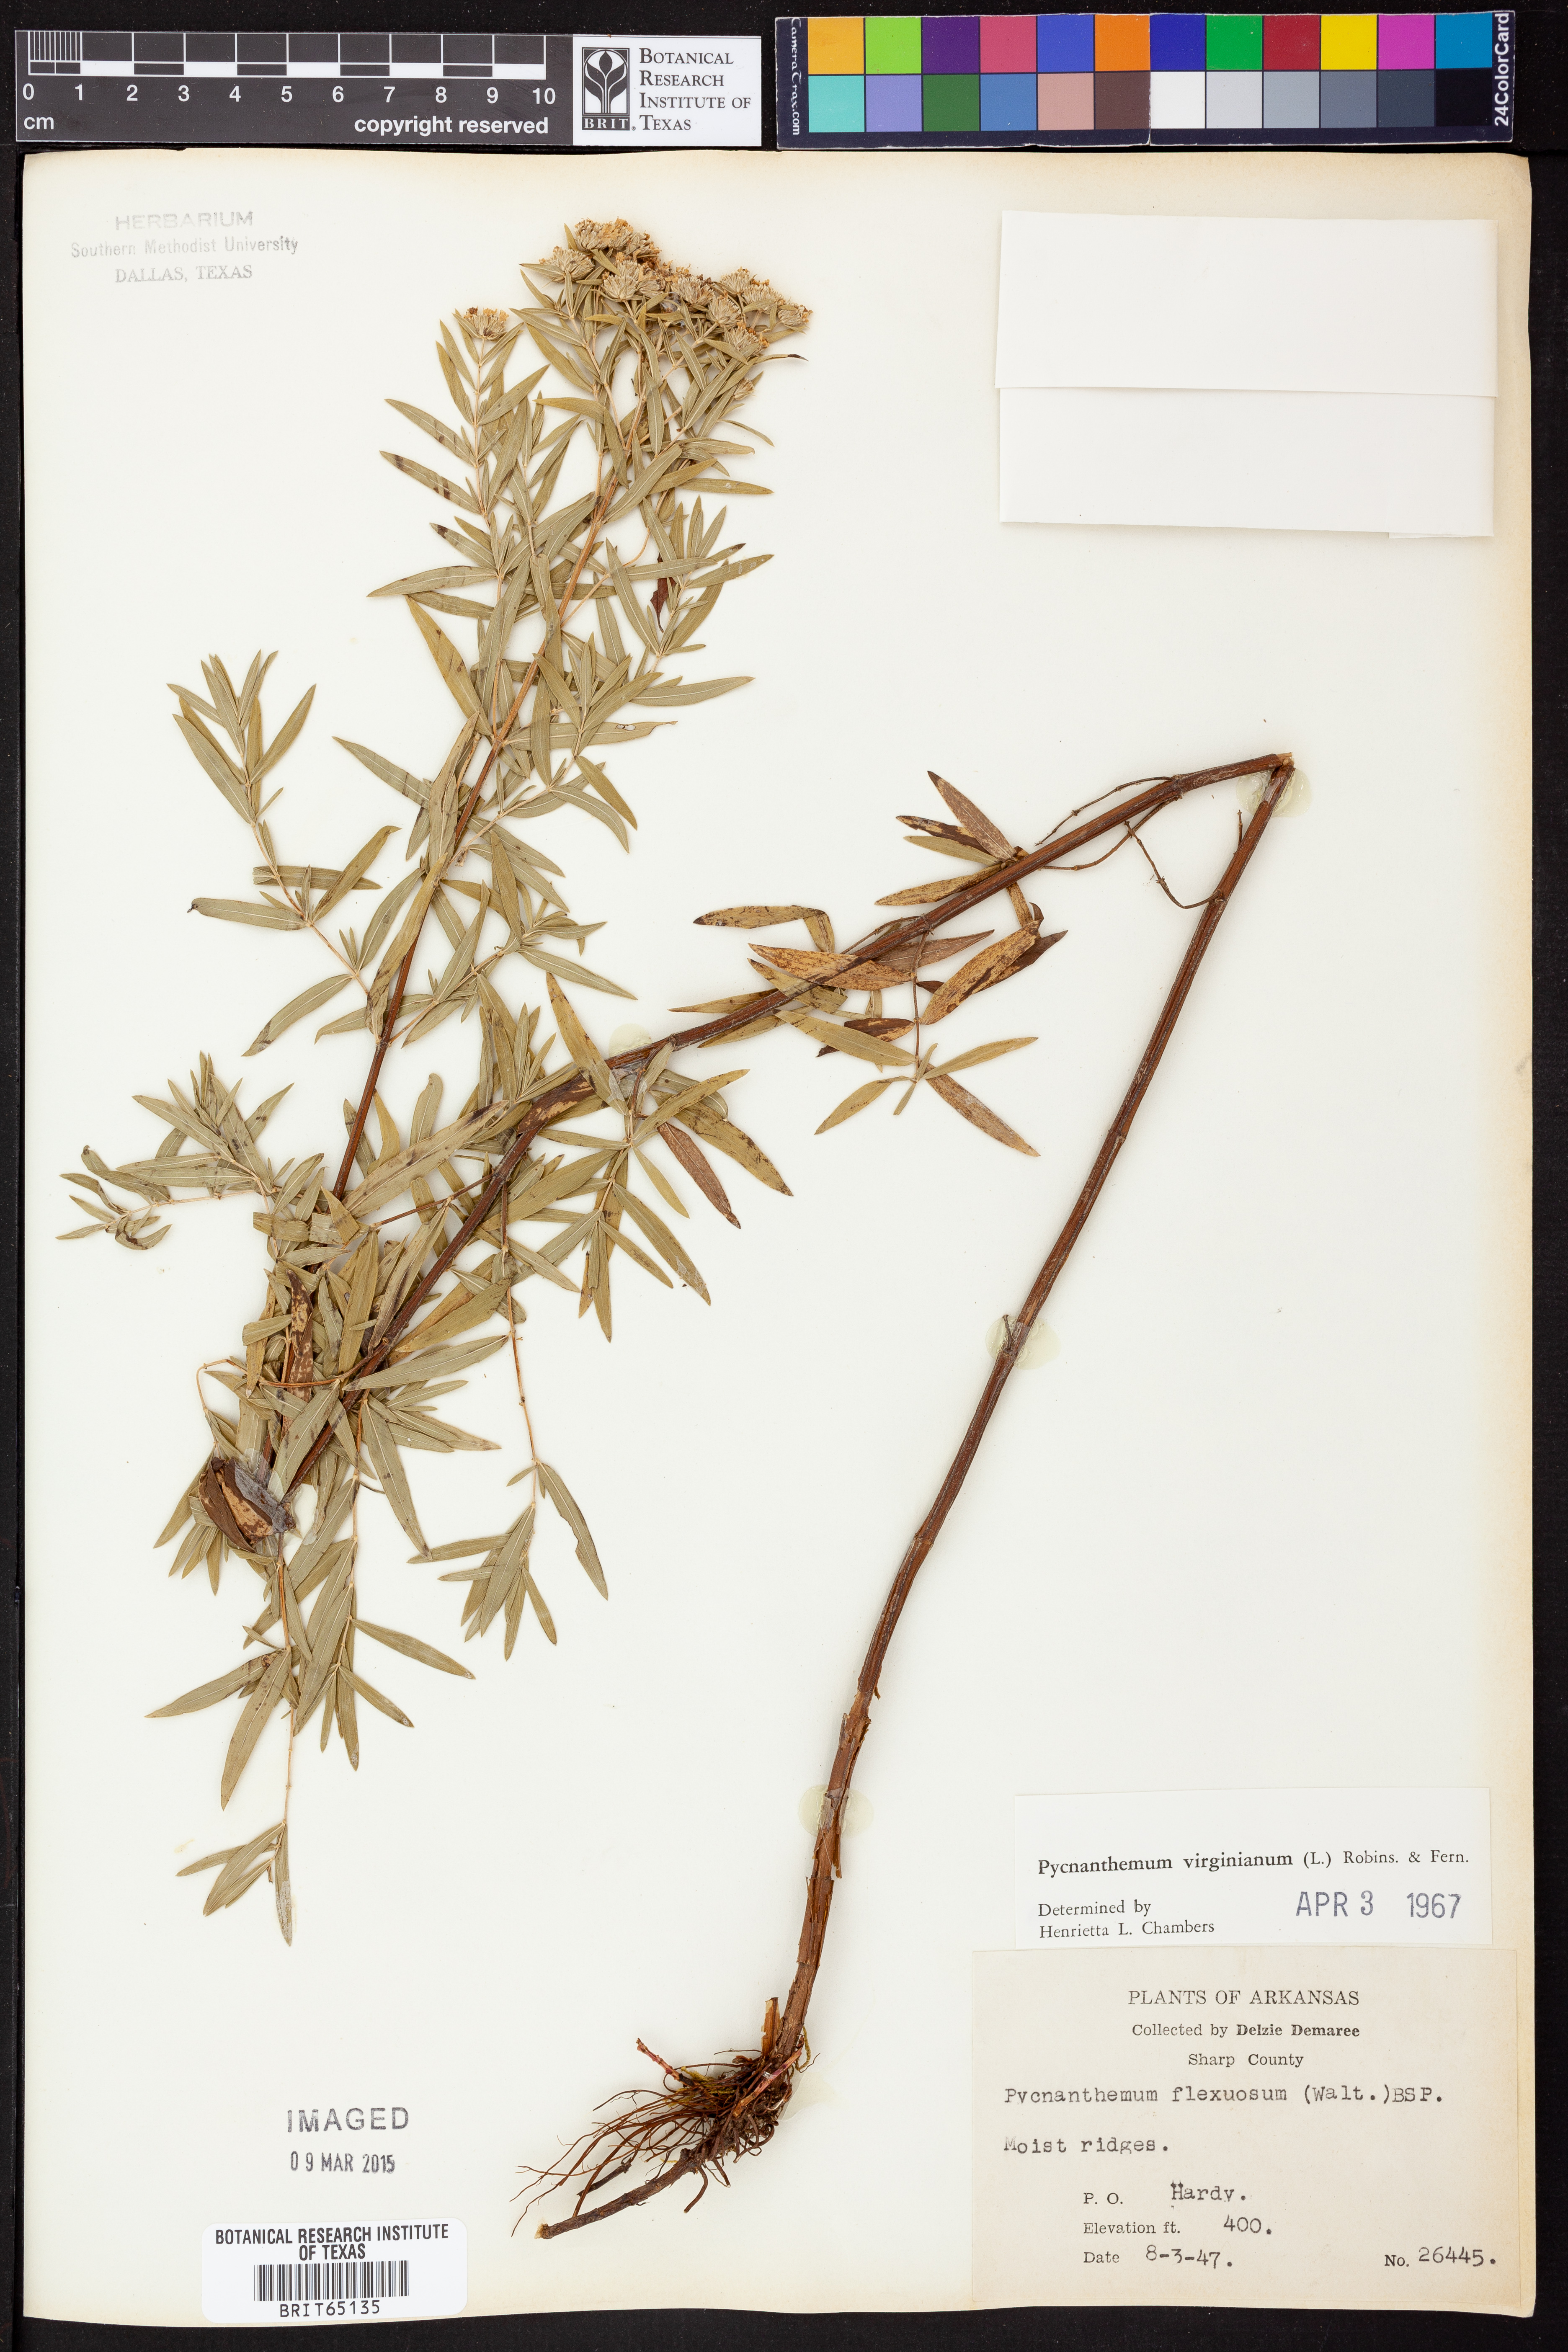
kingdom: Plantae
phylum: Tracheophyta
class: Magnoliopsida
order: Lamiales
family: Lamiaceae
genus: Pycnanthemum
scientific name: Pycnanthemum virginianum
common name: Virginia mountain-mint
